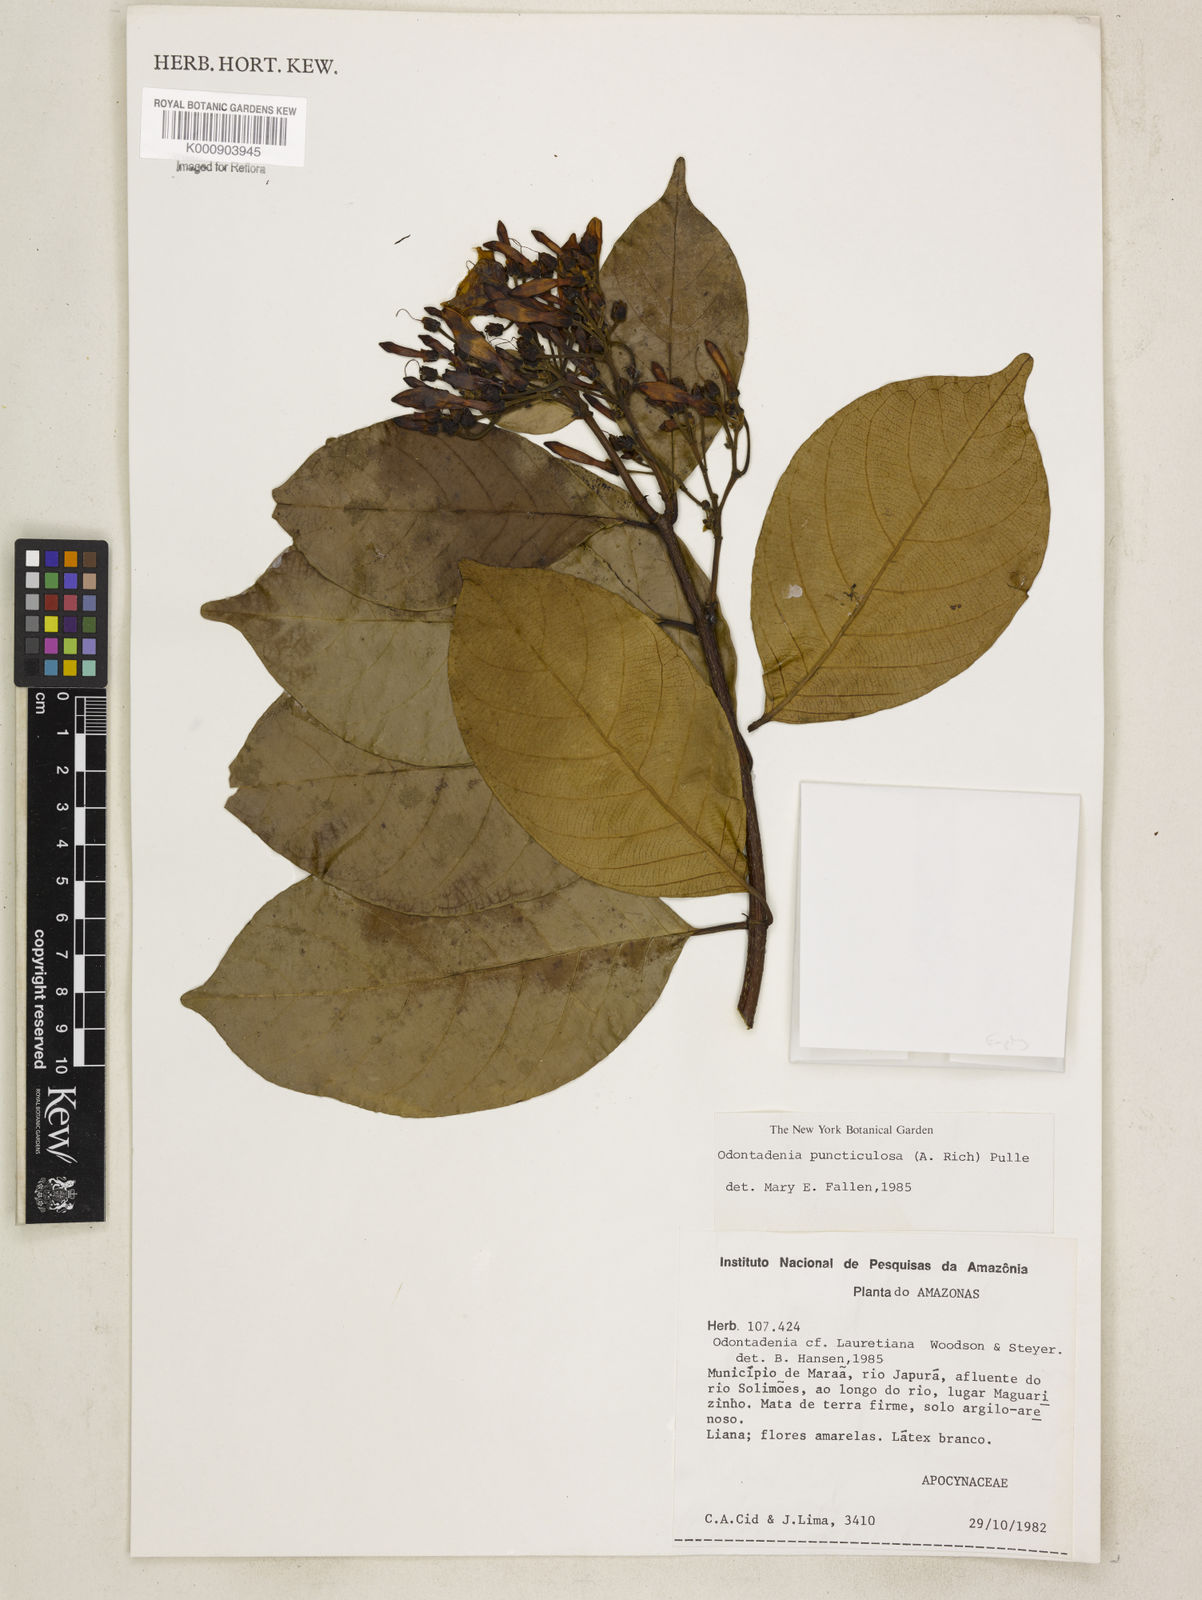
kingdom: Plantae
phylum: Tracheophyta
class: Magnoliopsida
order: Gentianales
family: Apocynaceae
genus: Odontadenia
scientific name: Odontadenia puncticulosa
